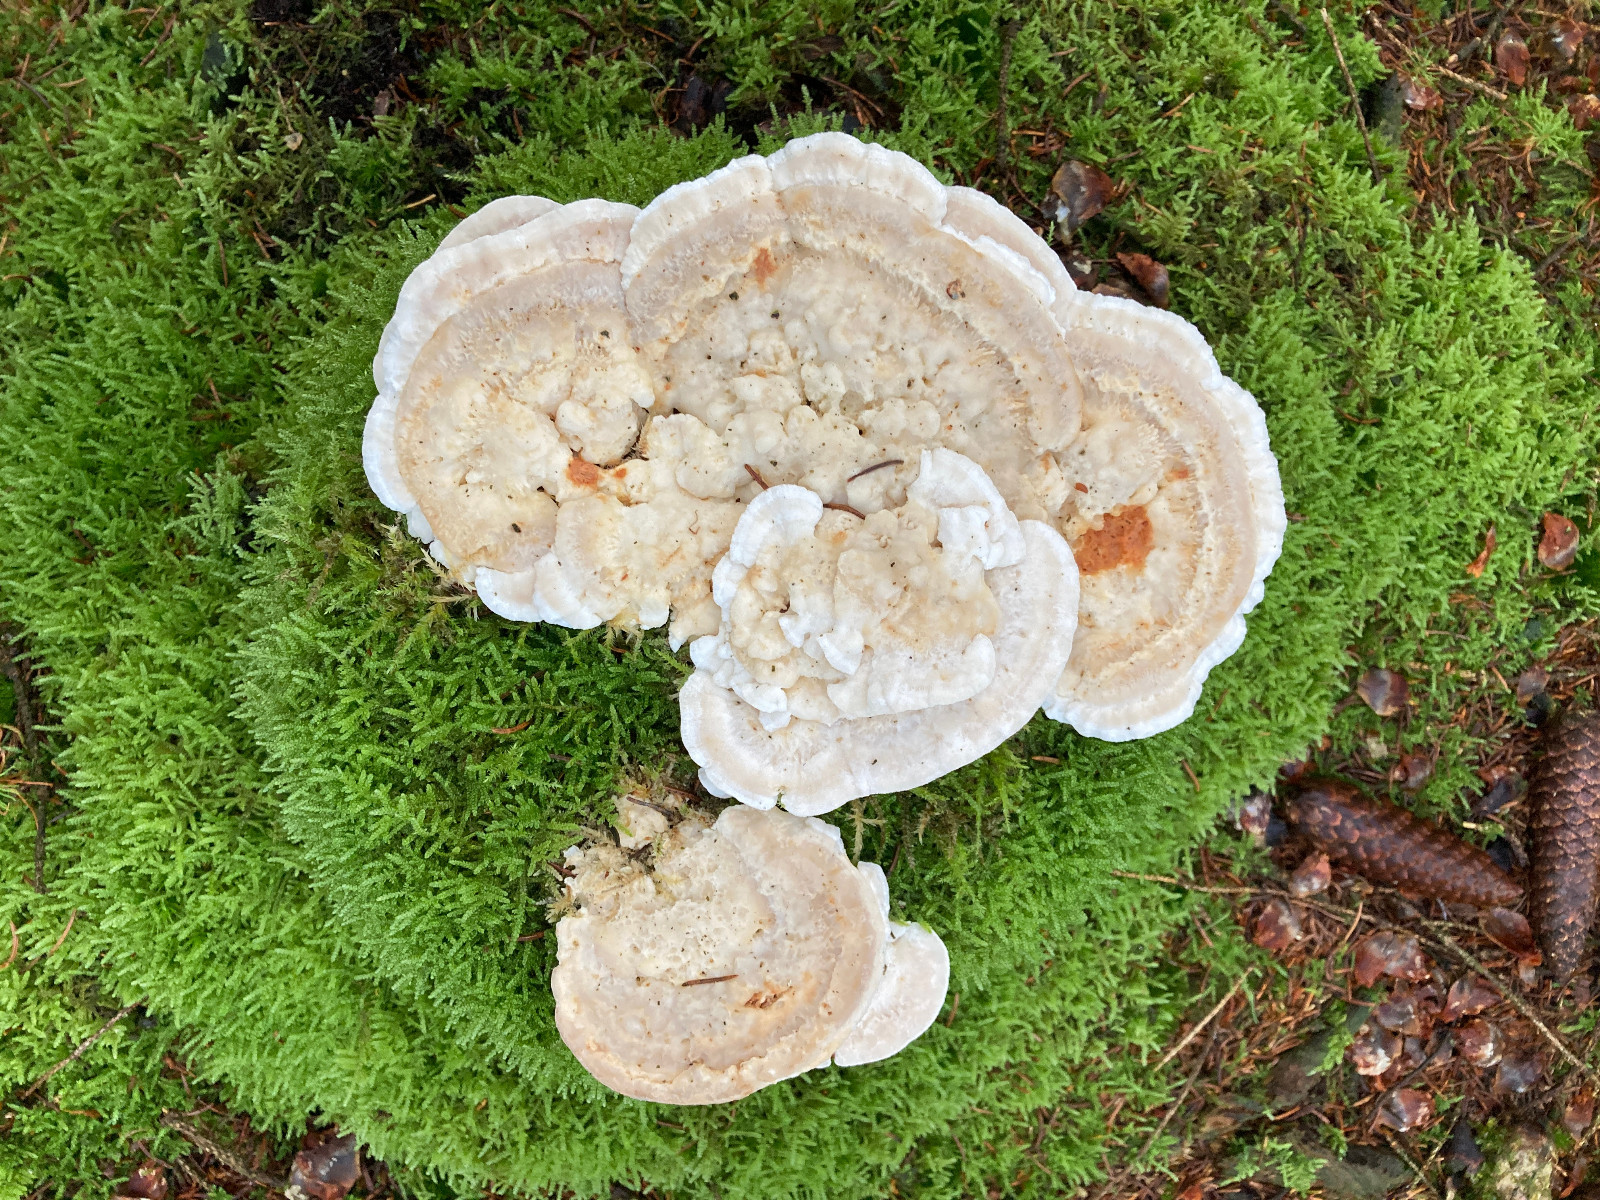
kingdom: Fungi
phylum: Basidiomycota
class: Agaricomycetes
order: Polyporales
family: Polyporaceae
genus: Trametes
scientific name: Trametes gibbosa
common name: puklet læderporesvamp
